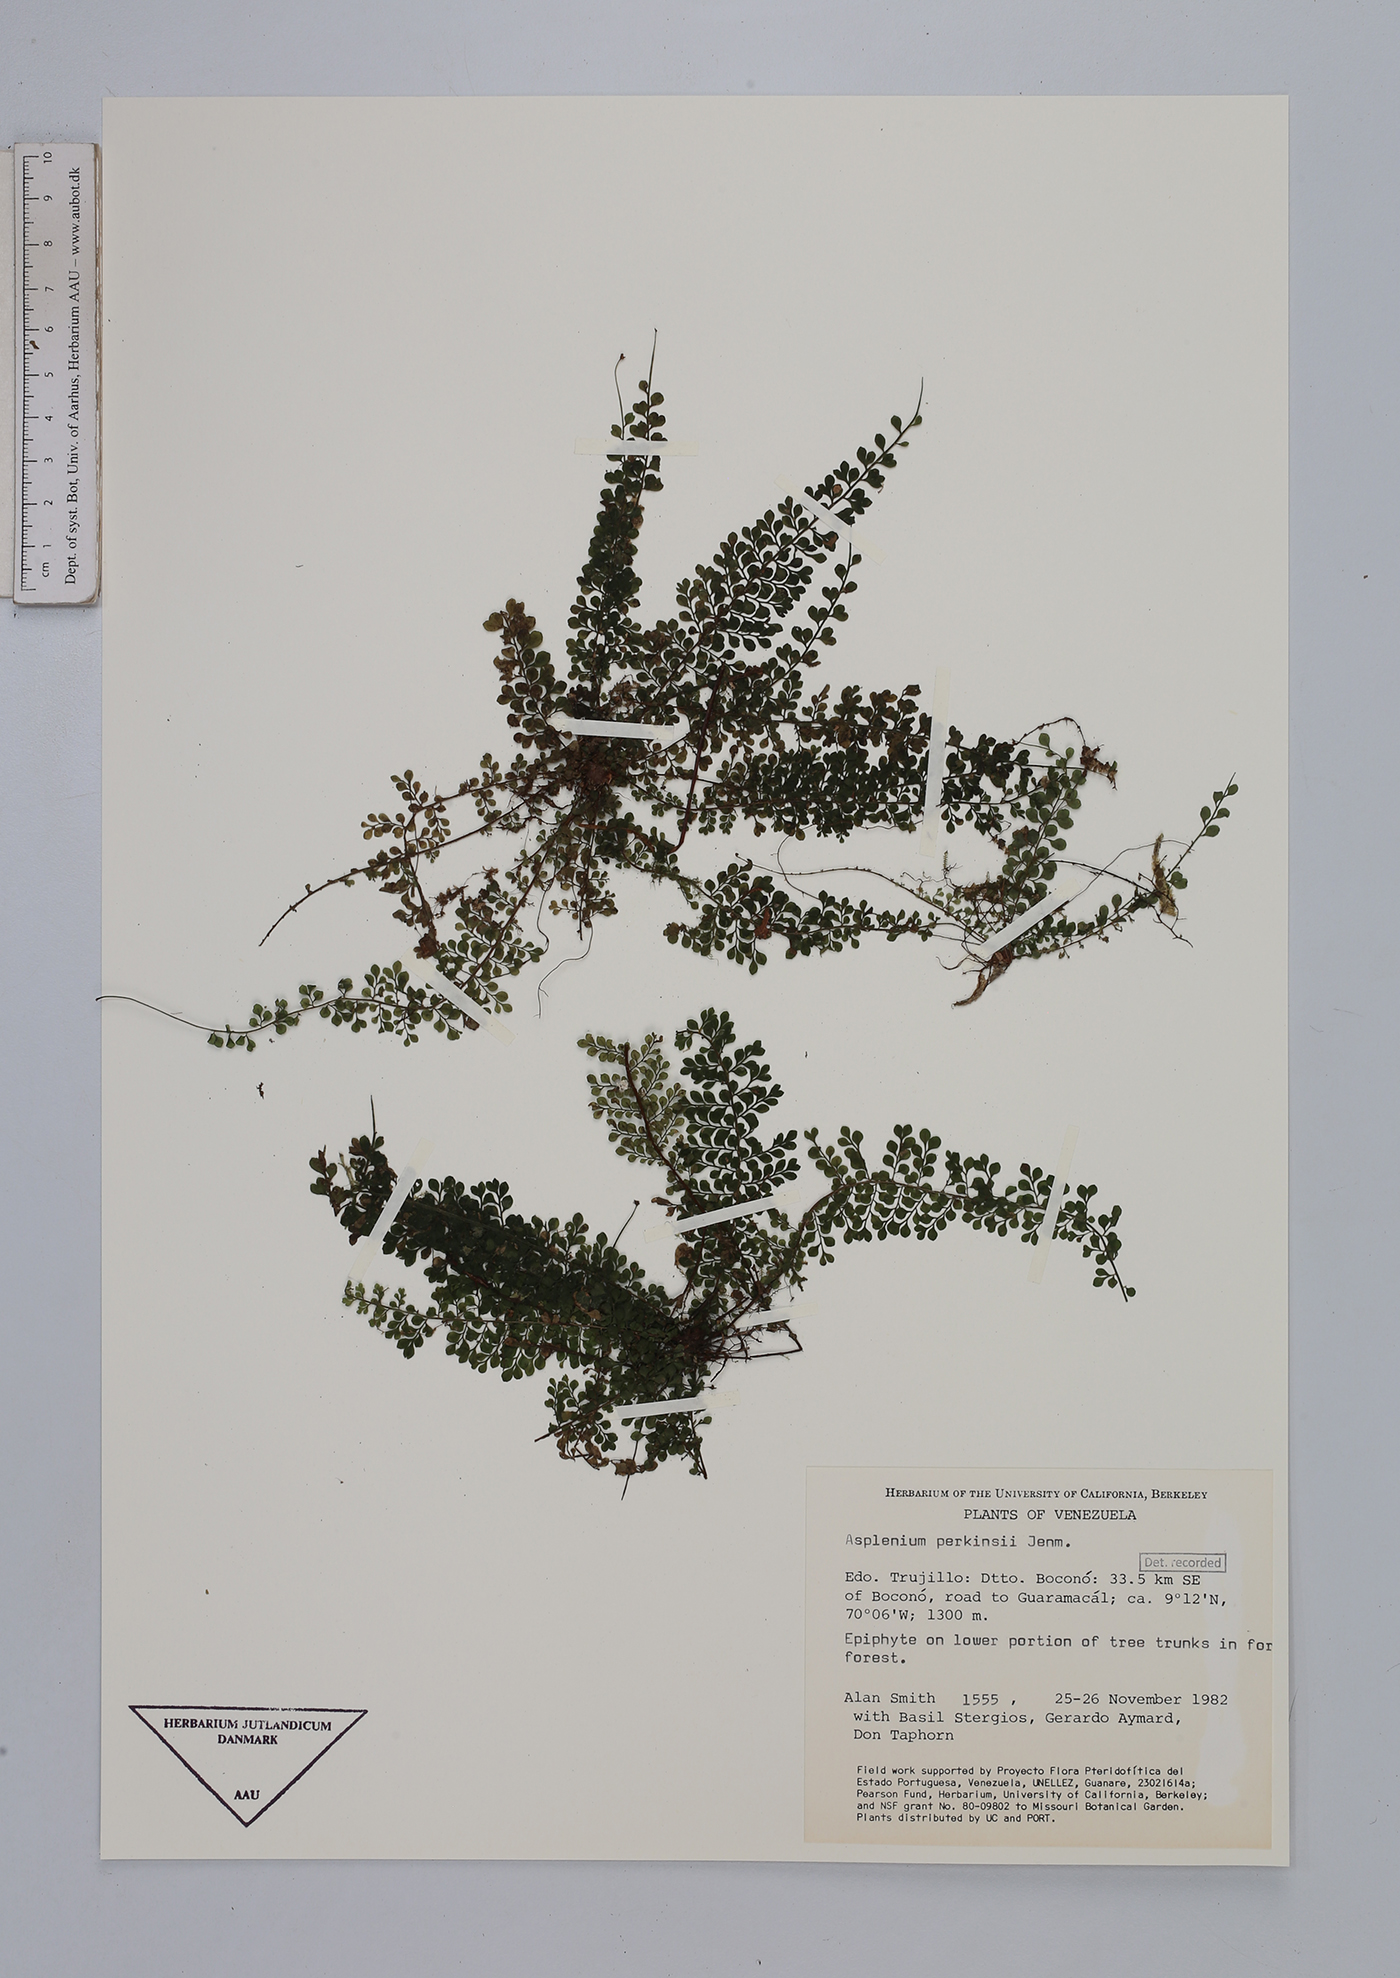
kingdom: Plantae
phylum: Tracheophyta
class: Polypodiopsida
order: Polypodiales
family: Aspleniaceae
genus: Asplenium
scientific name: Asplenium rutaceum
